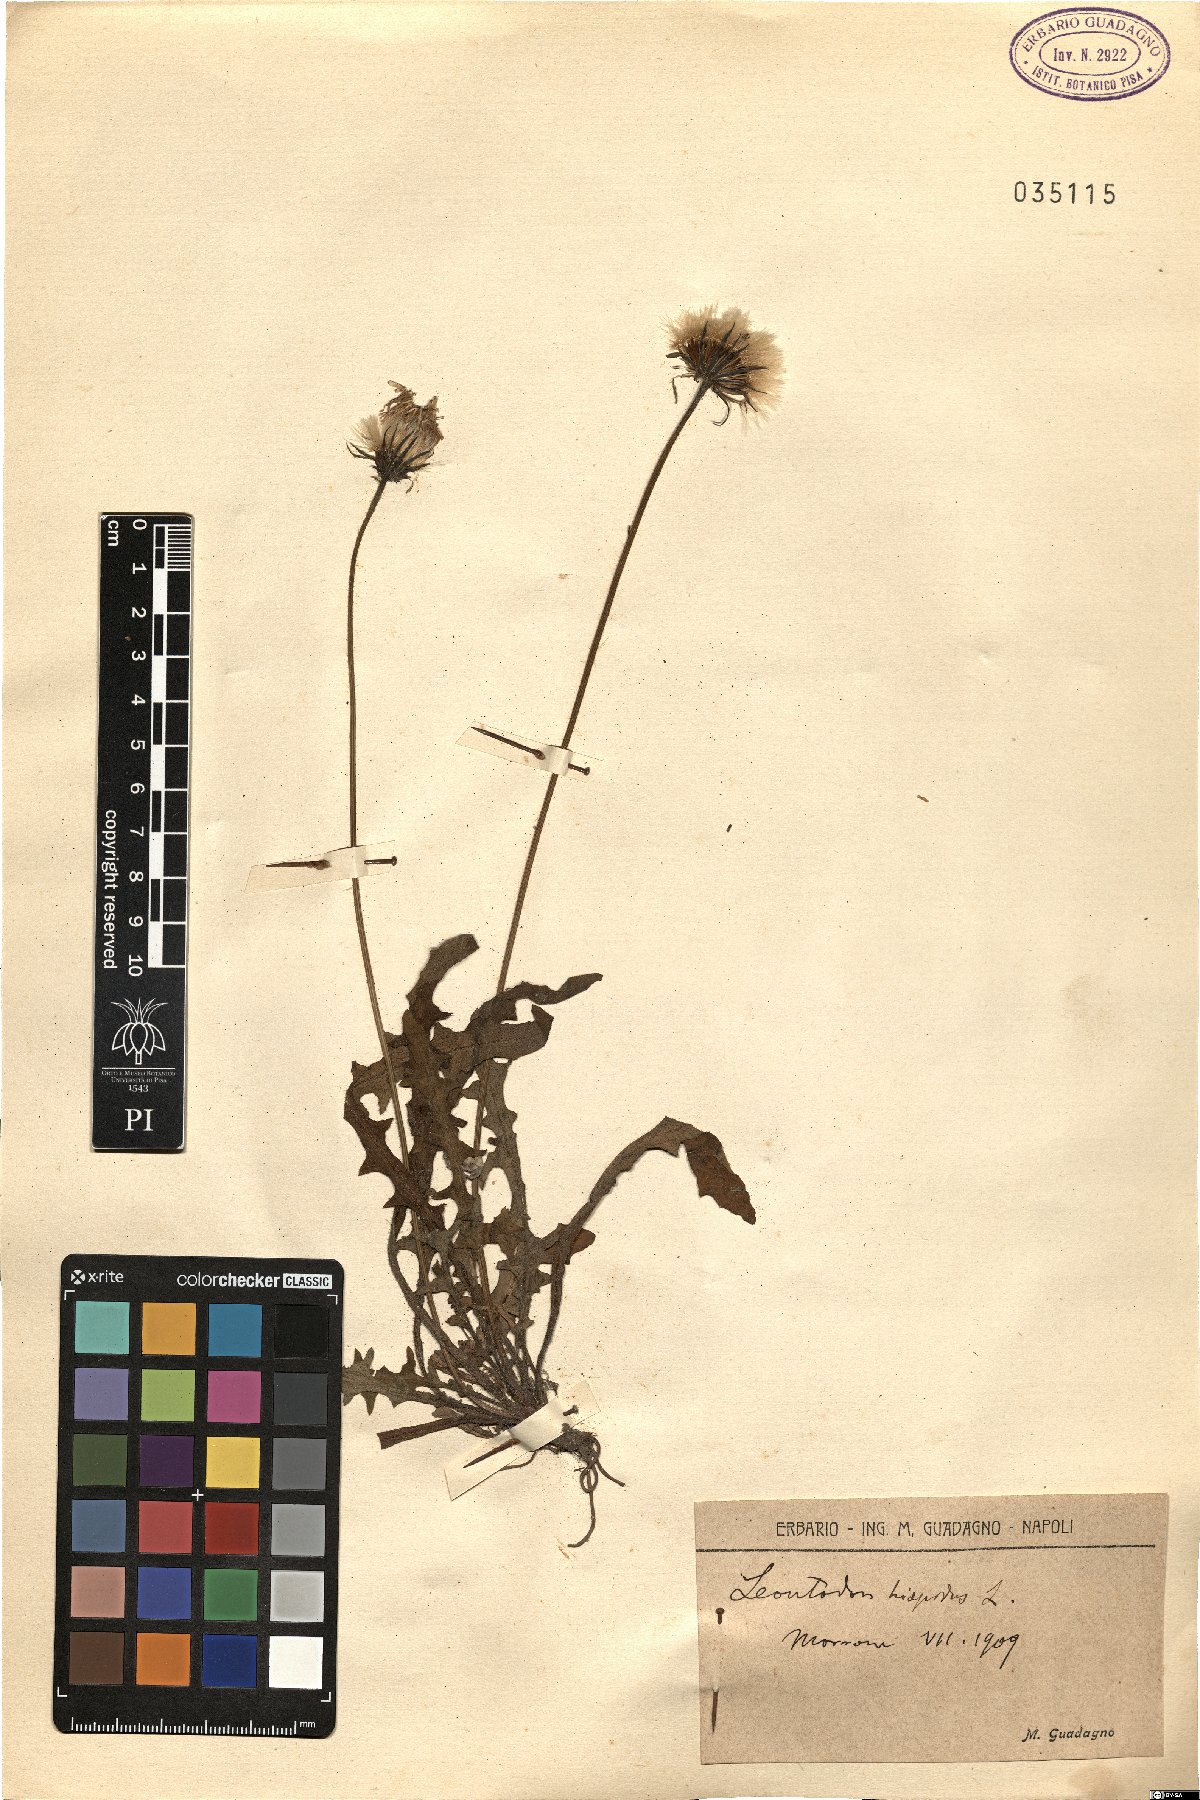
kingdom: Plantae
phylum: Tracheophyta
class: Magnoliopsida
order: Asterales
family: Asteraceae
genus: Leontodon
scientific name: Leontodon hispidus
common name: Rough hawkbit
